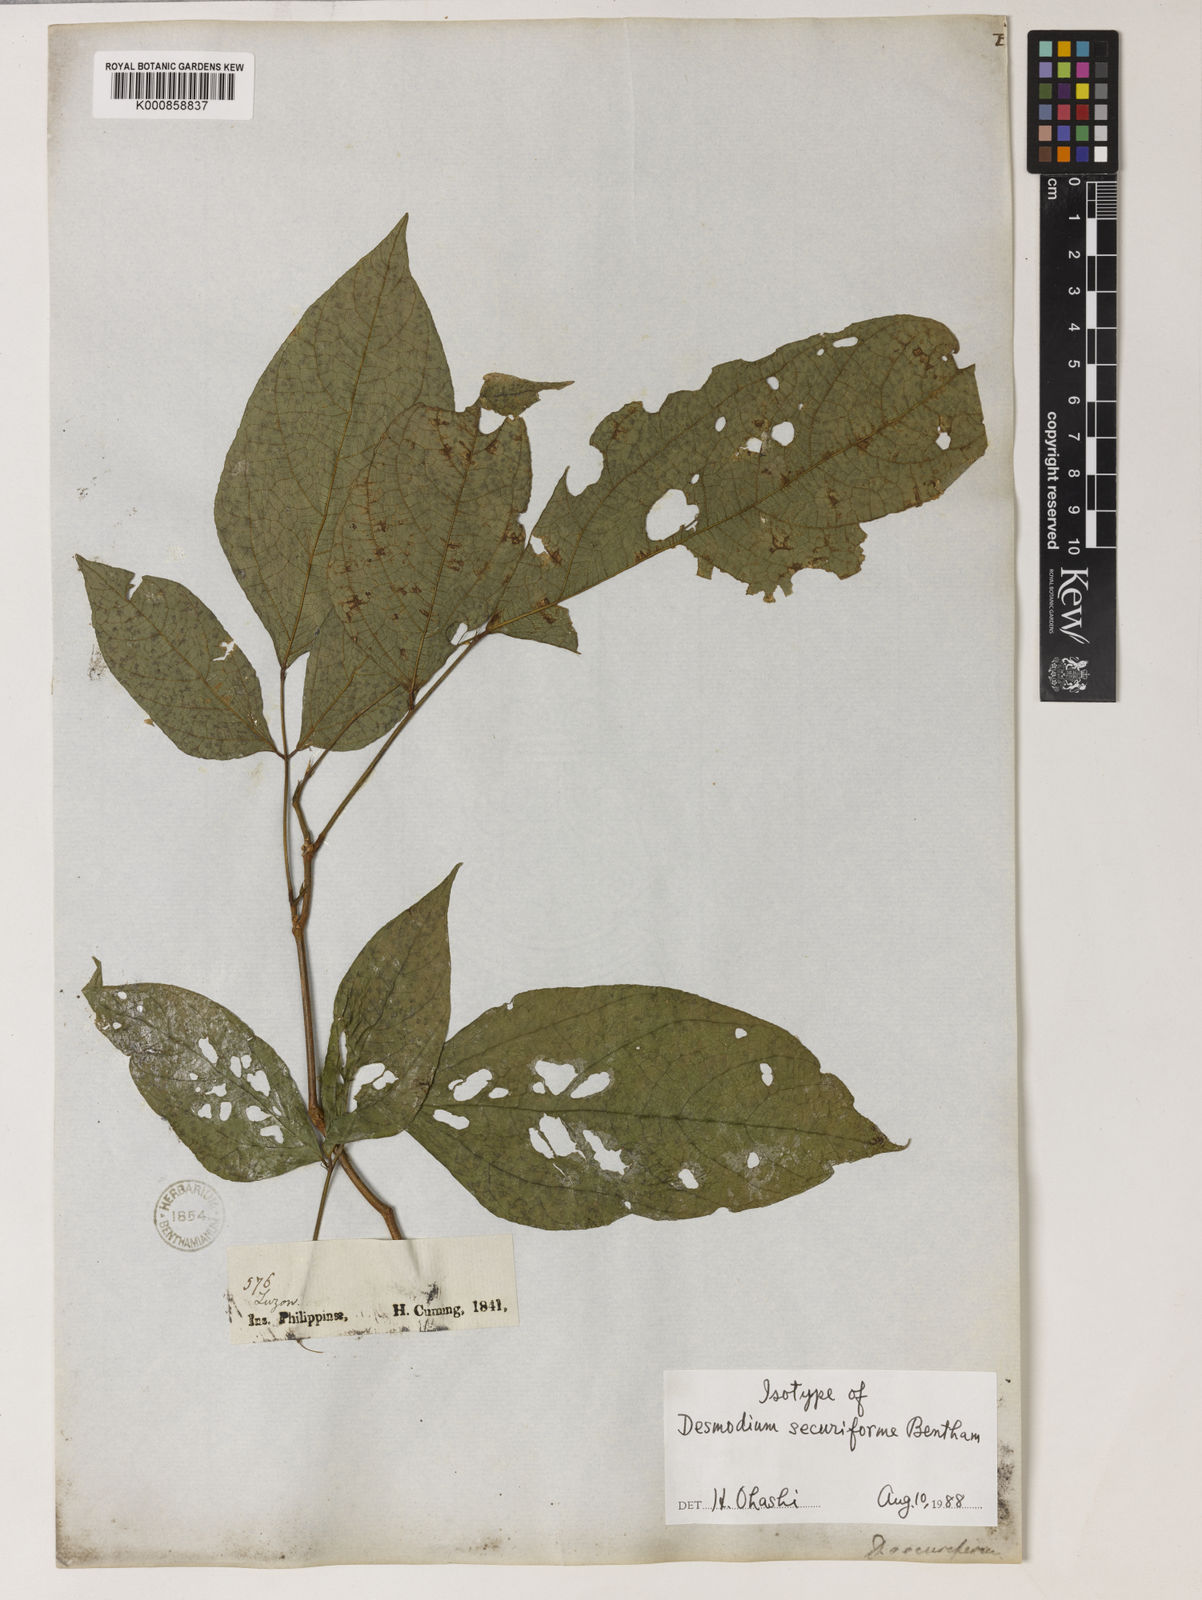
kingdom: Plantae
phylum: Tracheophyta
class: Magnoliopsida
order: Fabales
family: Fabaceae
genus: Monarthrocarpus
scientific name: Monarthrocarpus securiformis
